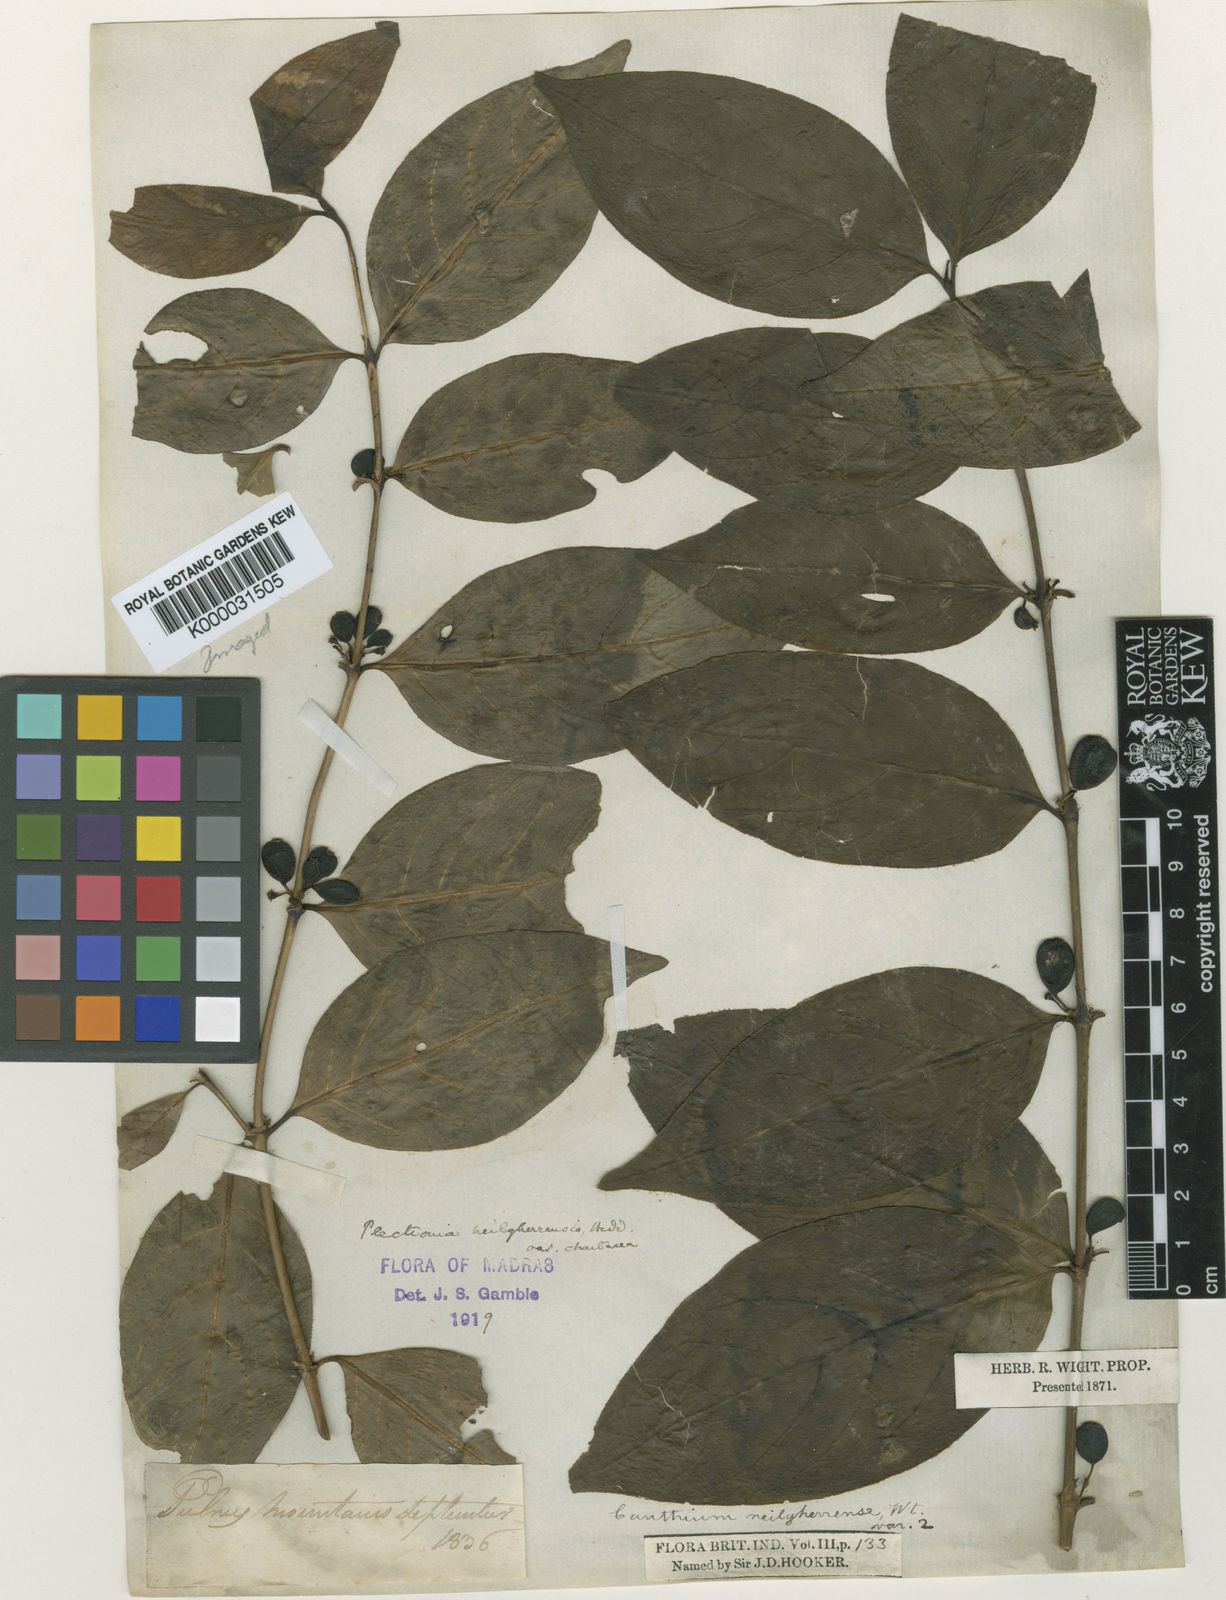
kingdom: Plantae
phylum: Tracheophyta
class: Magnoliopsida
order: Gentianales
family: Rubiaceae
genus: Canthiumera
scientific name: Canthiumera neilgherrensis
